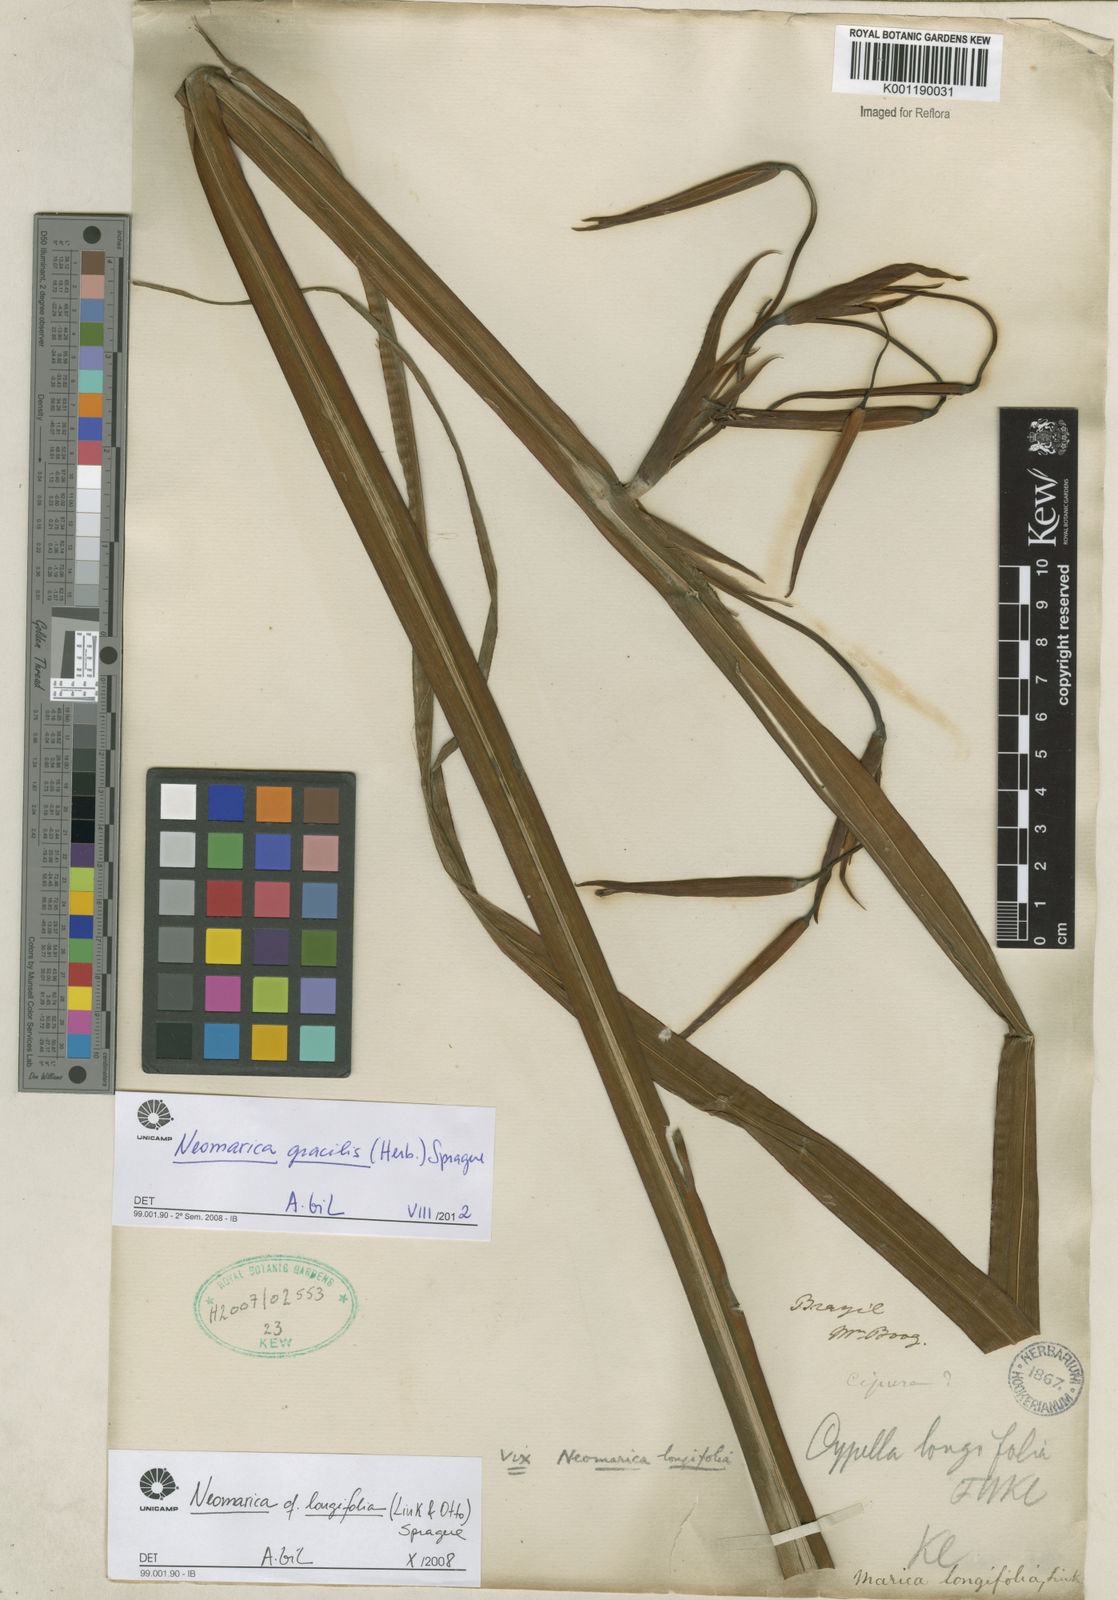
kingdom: Plantae
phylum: Tracheophyta
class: Liliopsida
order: Asparagales
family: Iridaceae
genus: Trimezia
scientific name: Trimezia gracilis
